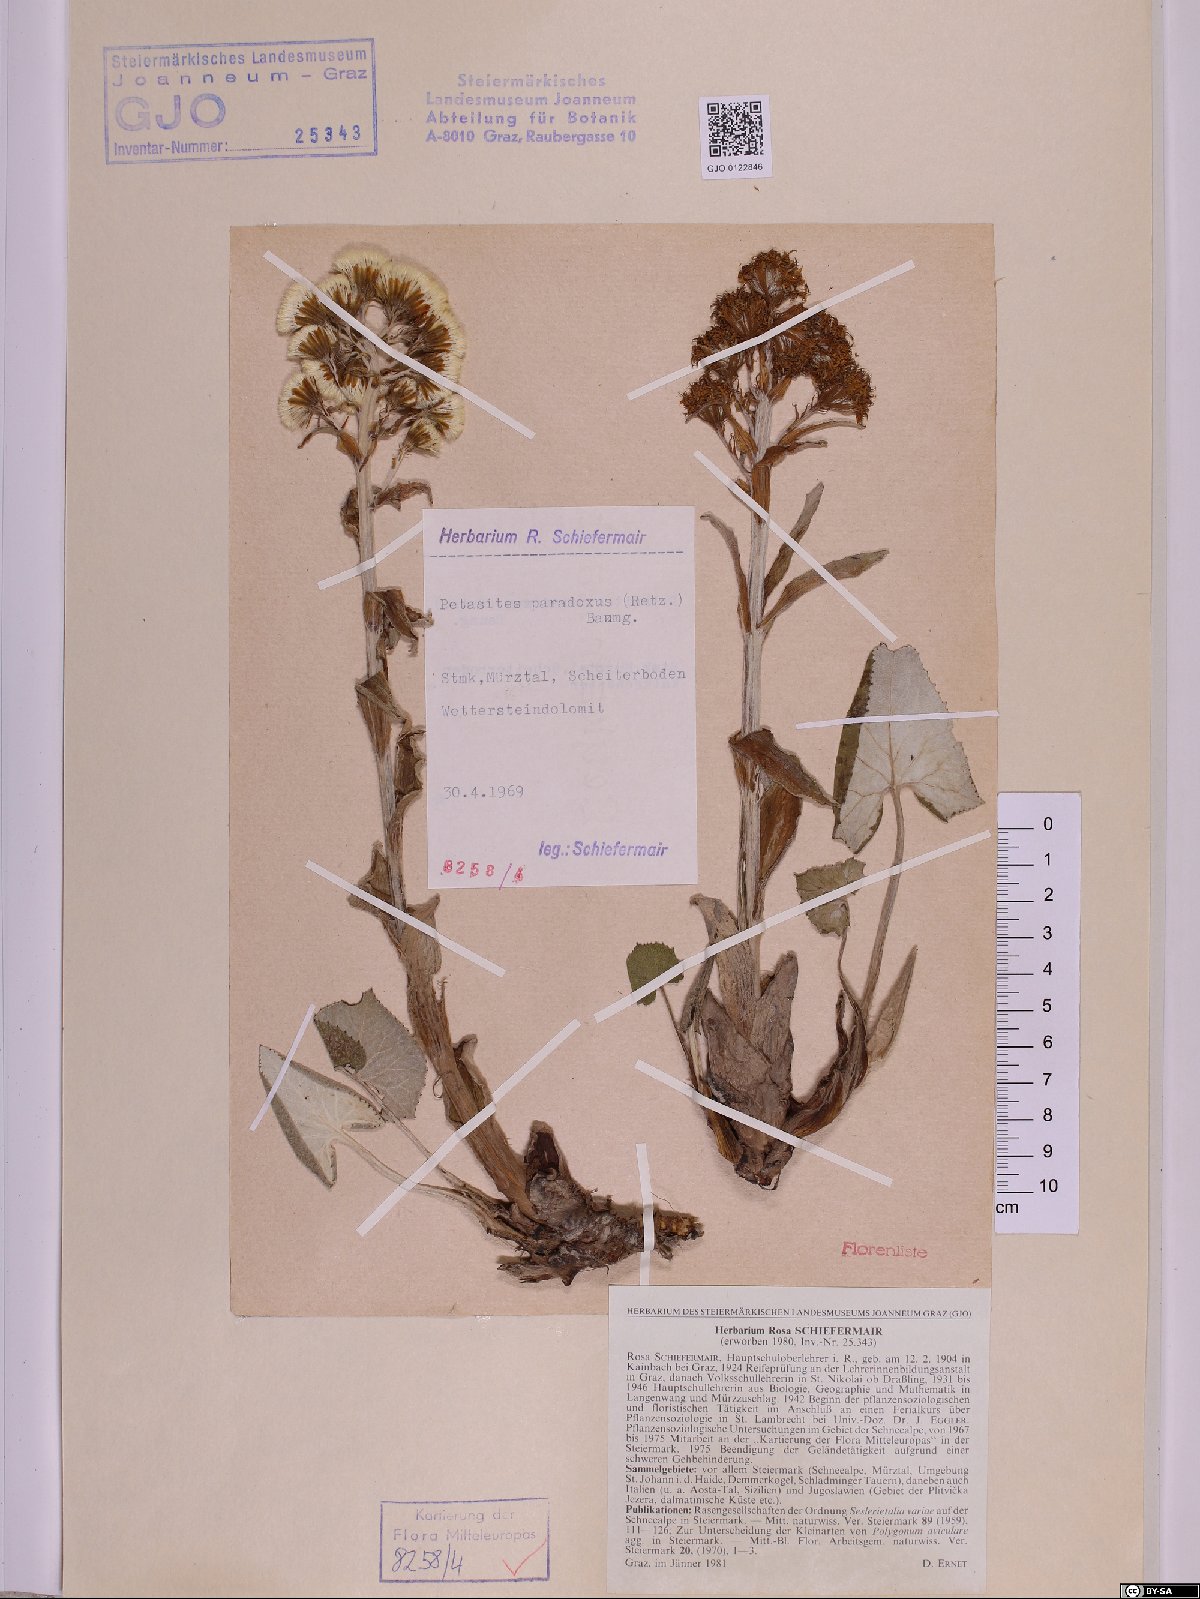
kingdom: Plantae
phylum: Tracheophyta
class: Magnoliopsida
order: Asterales
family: Asteraceae
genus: Petasites
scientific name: Petasites paradoxus
